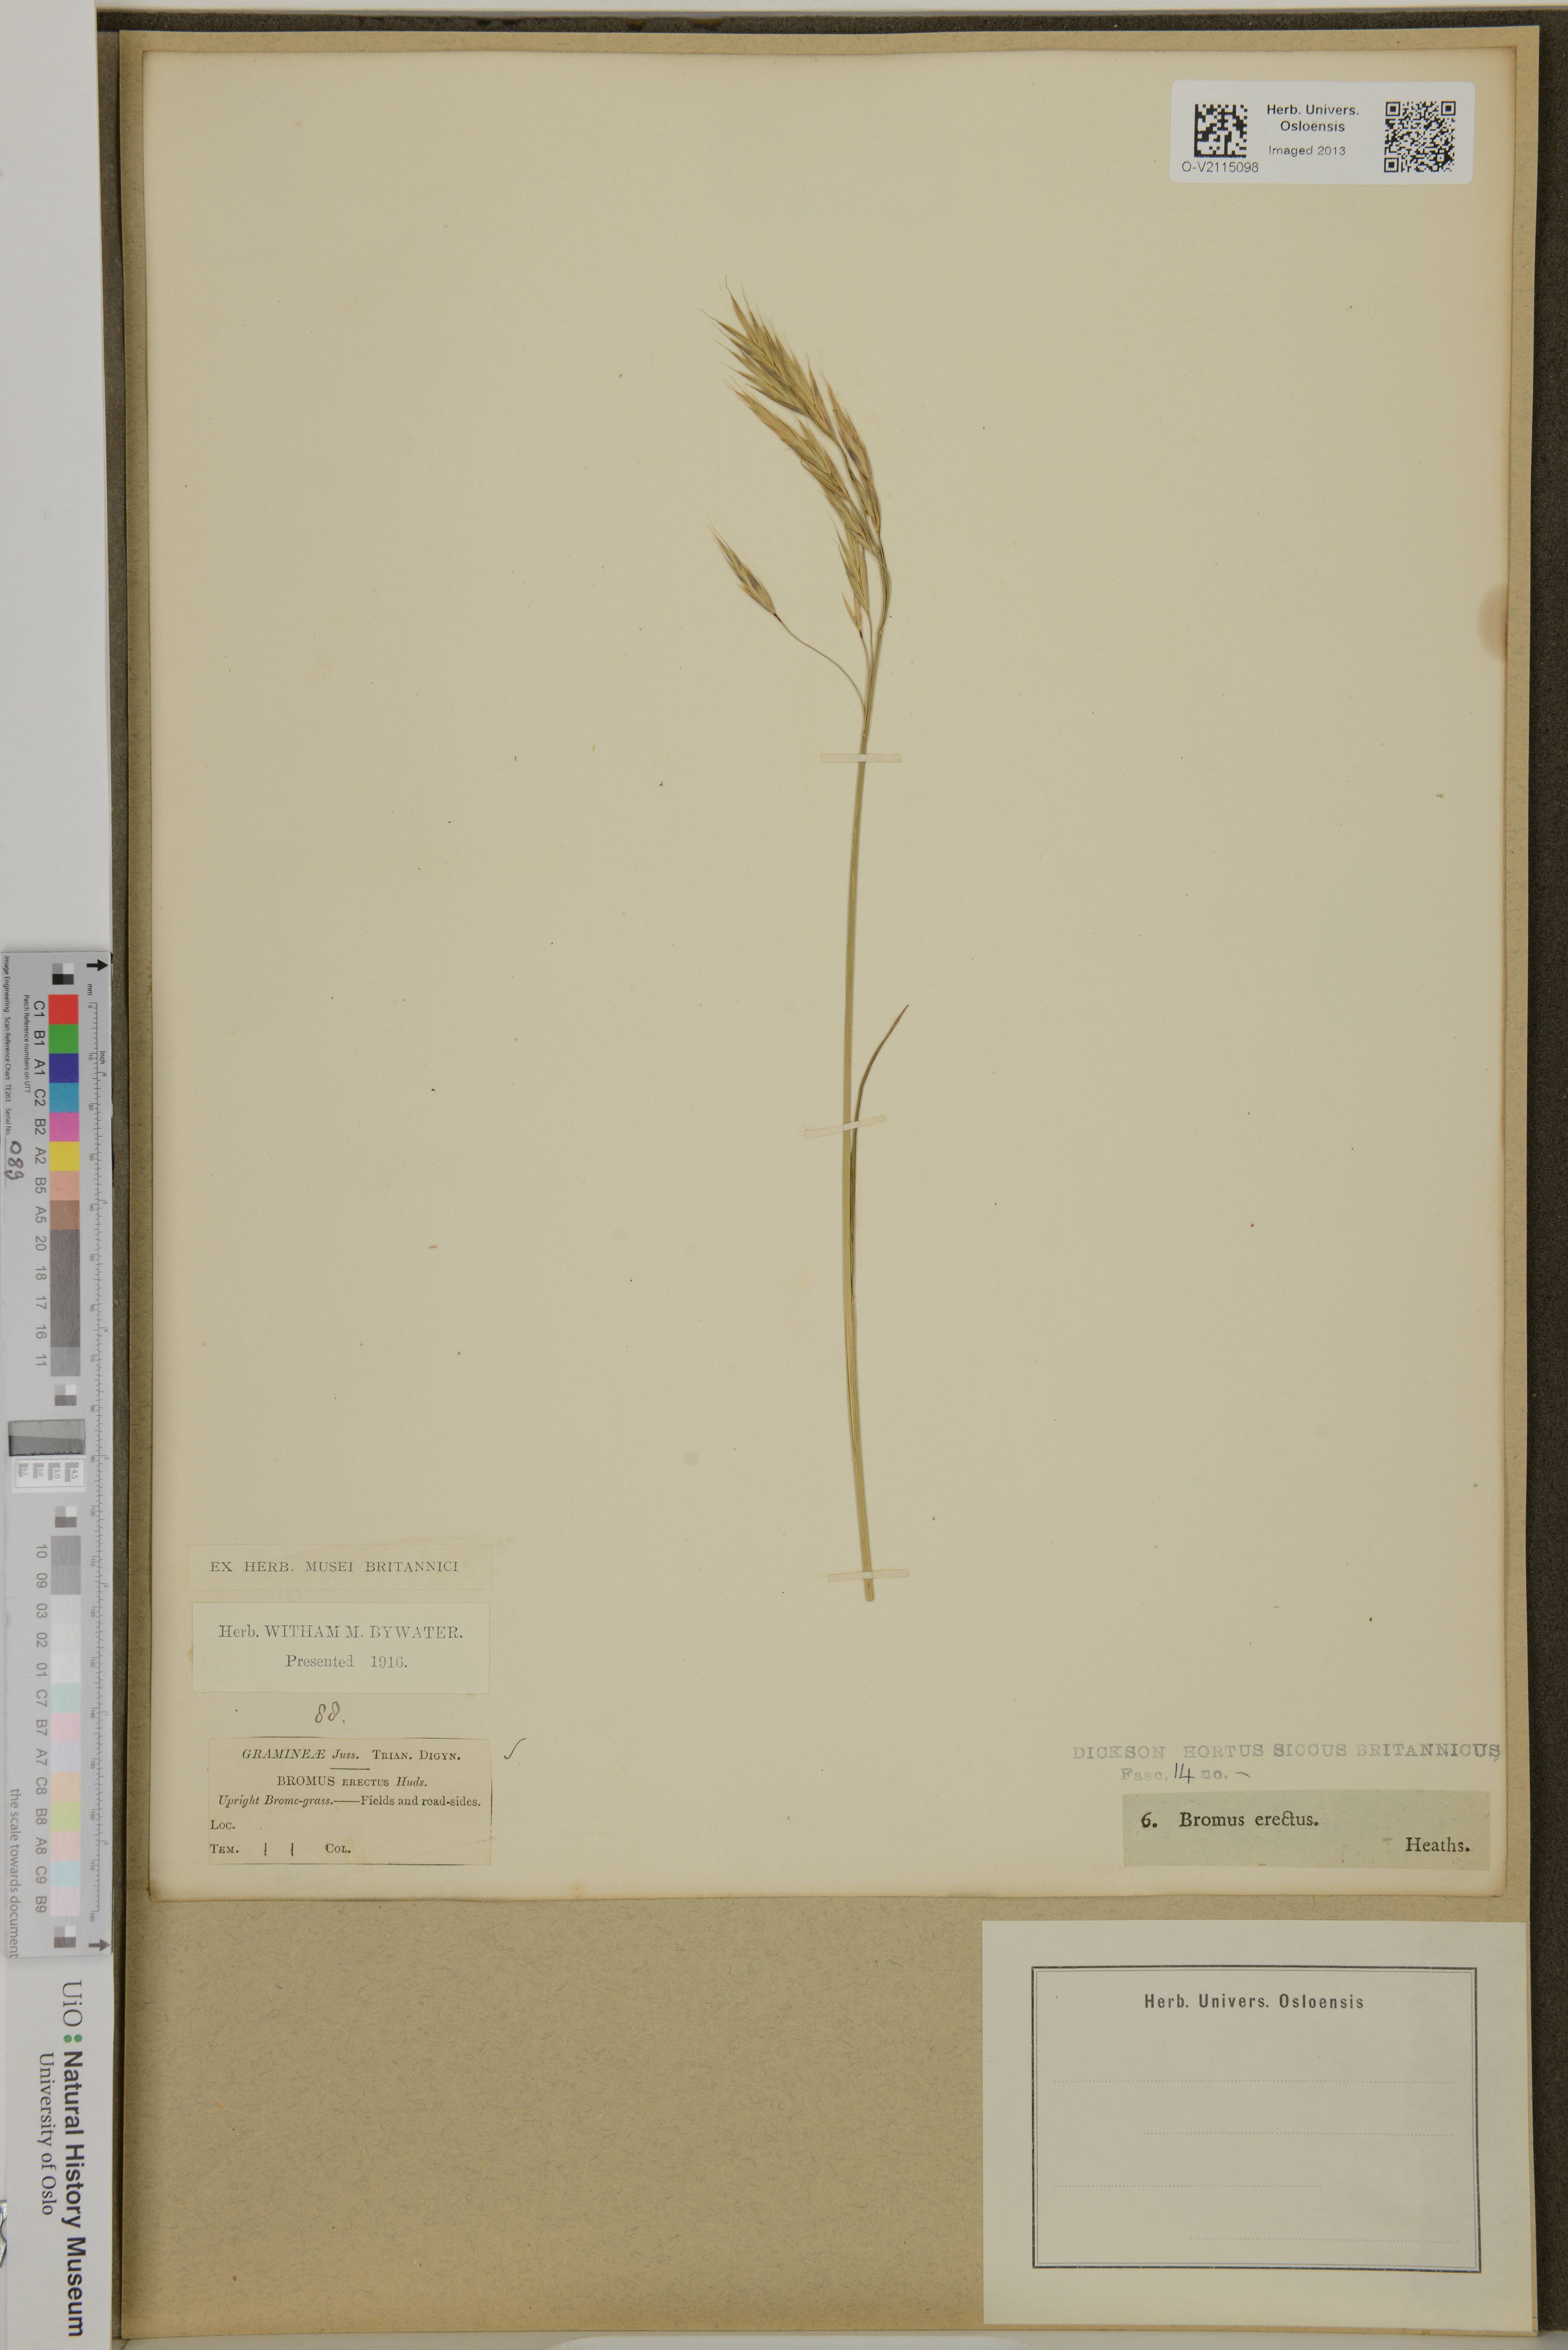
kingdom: Plantae
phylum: Tracheophyta
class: Liliopsida
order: Poales
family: Poaceae
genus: Bromus
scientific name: Bromus erectus
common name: Erect brome
